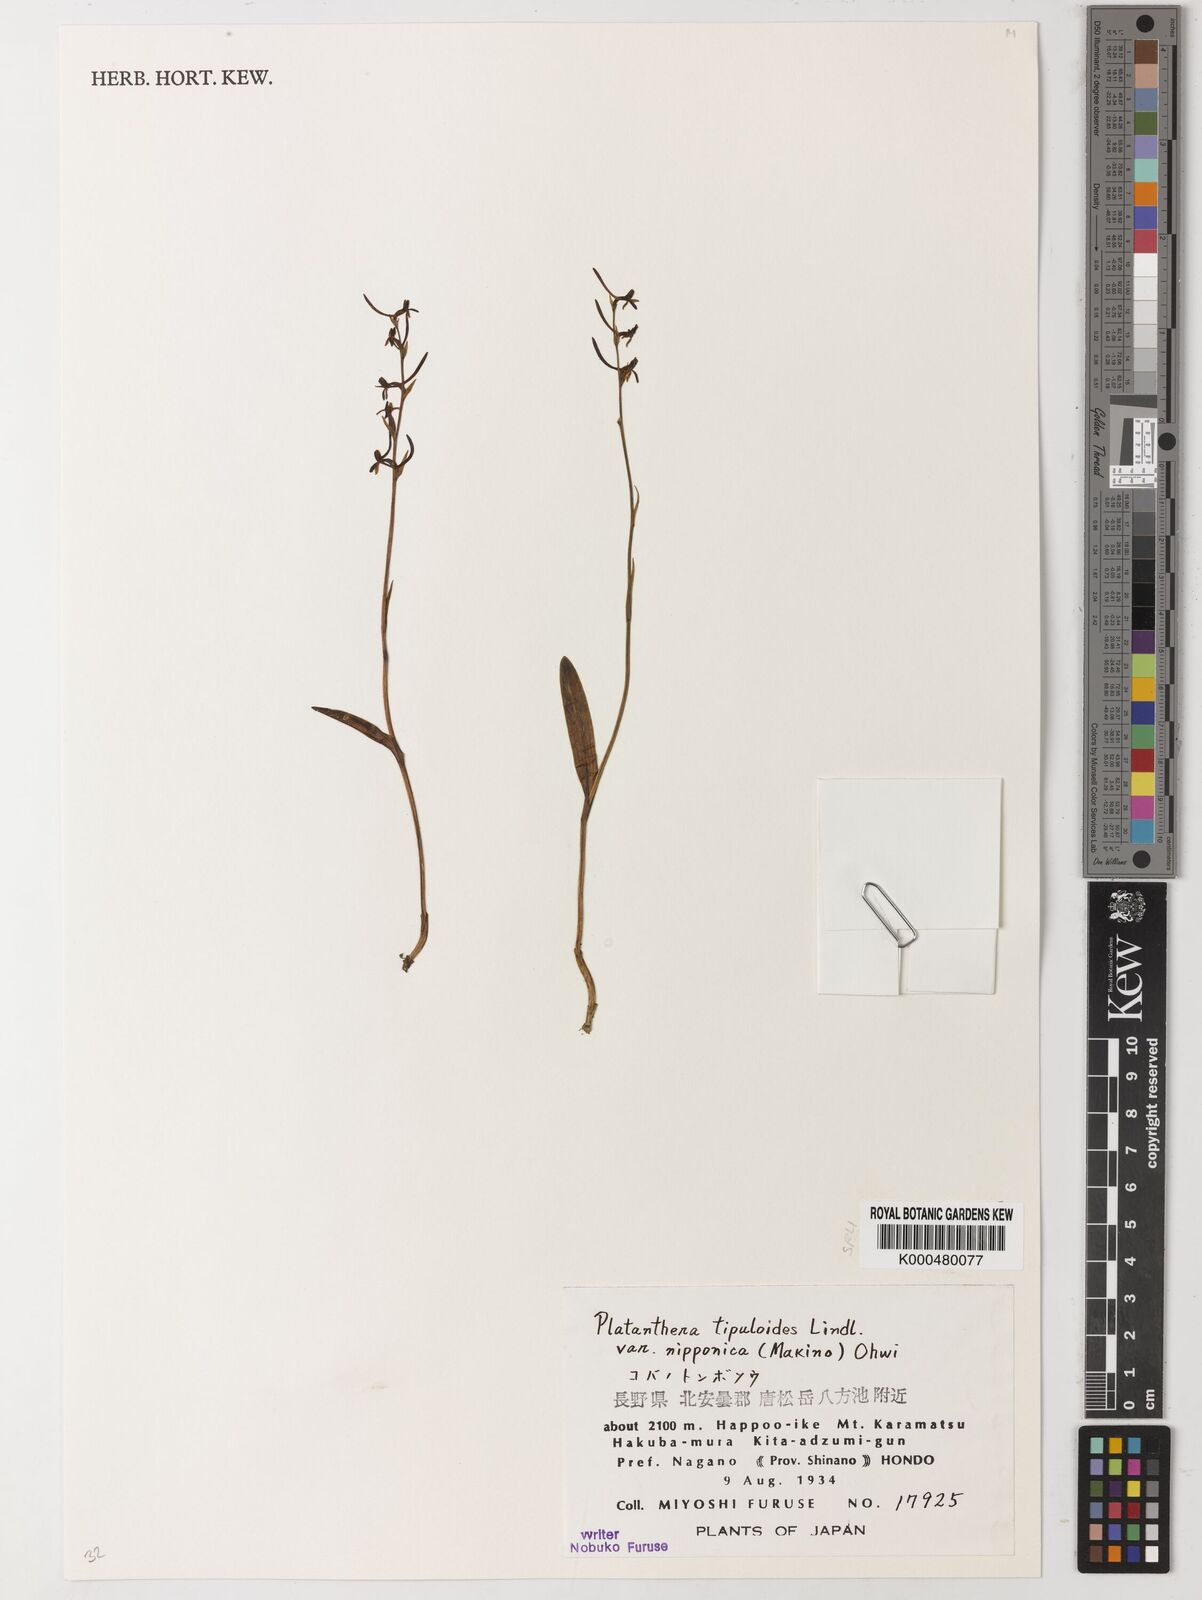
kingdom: Plantae
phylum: Tracheophyta
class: Liliopsida
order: Asparagales
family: Orchidaceae
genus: Platanthera
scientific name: Platanthera nipponica
